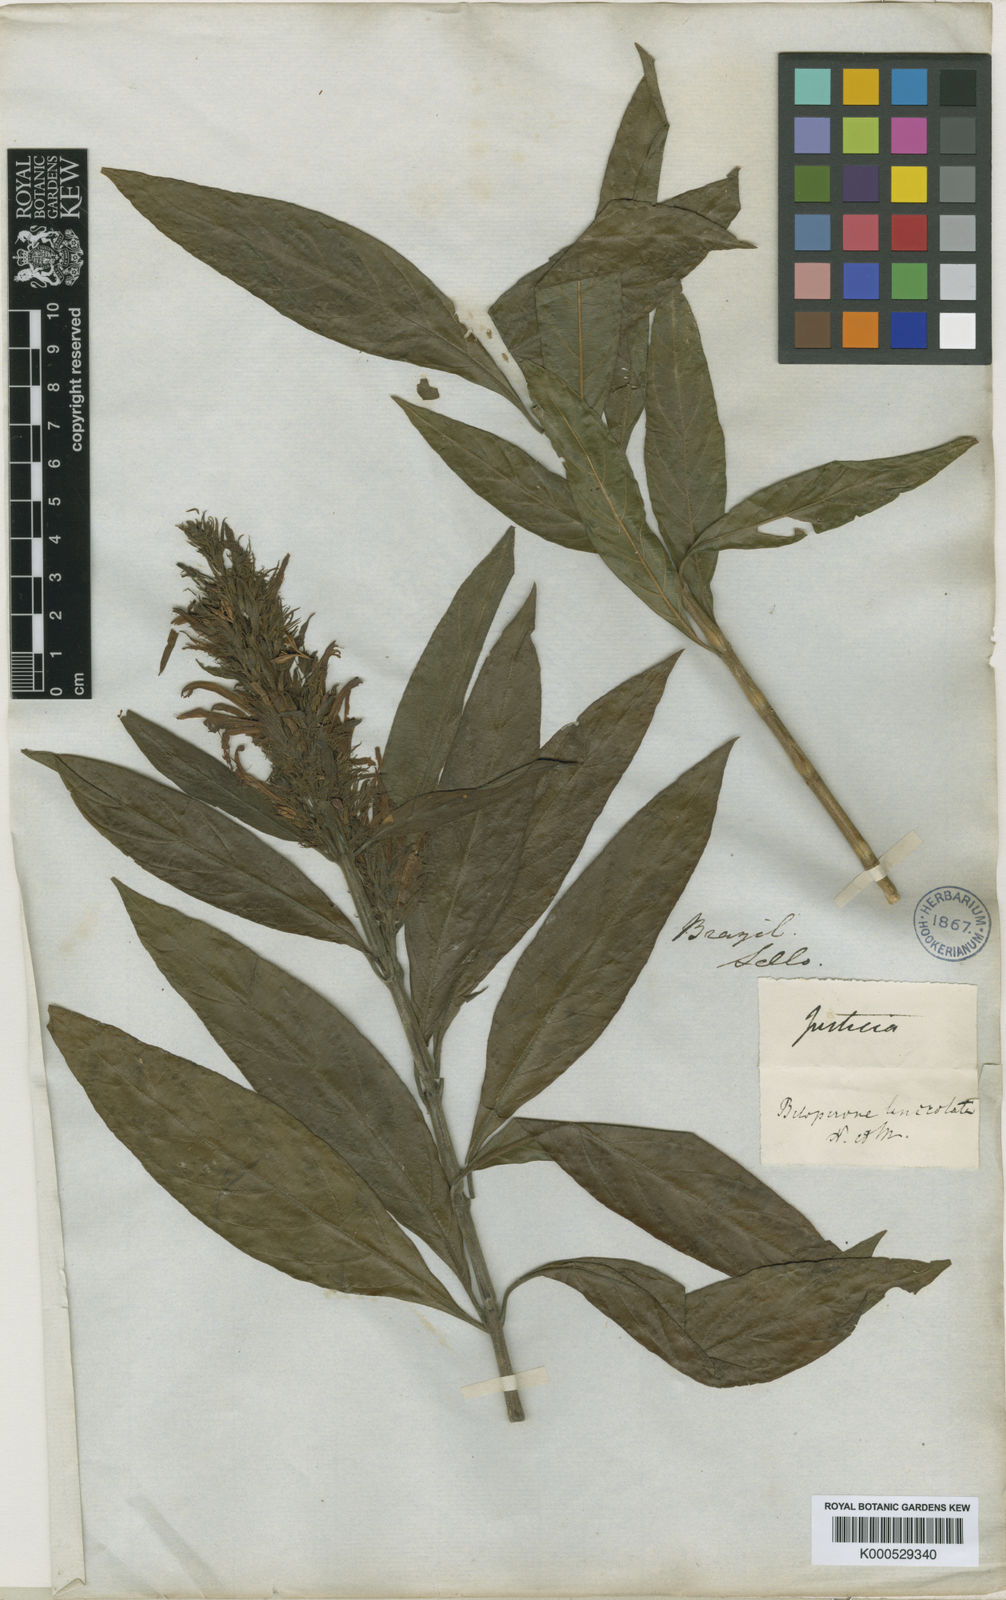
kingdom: Plantae
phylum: Tracheophyta
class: Magnoliopsida
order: Lamiales
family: Acanthaceae
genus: Justicia
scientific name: Justicia minensis
